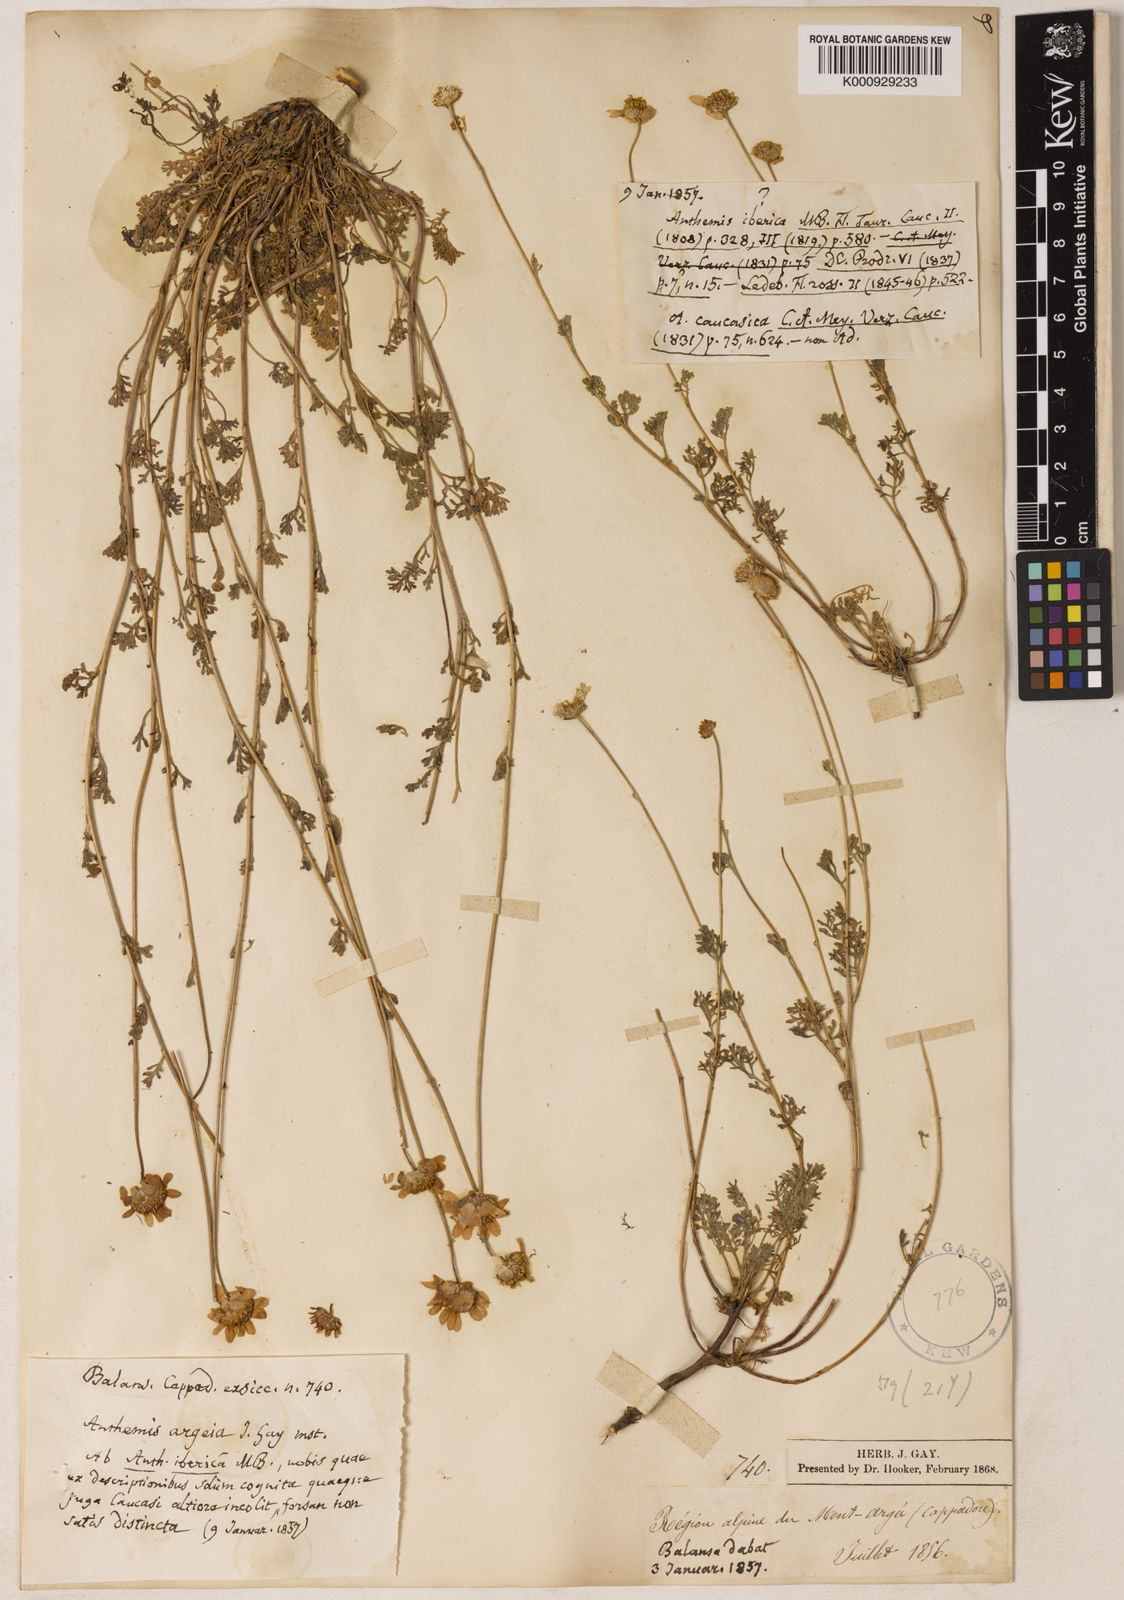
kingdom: Plantae
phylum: Tracheophyta
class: Magnoliopsida
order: Asterales
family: Asteraceae
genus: Anthemis
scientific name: Anthemis cretica
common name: Mountain dog-daisy
